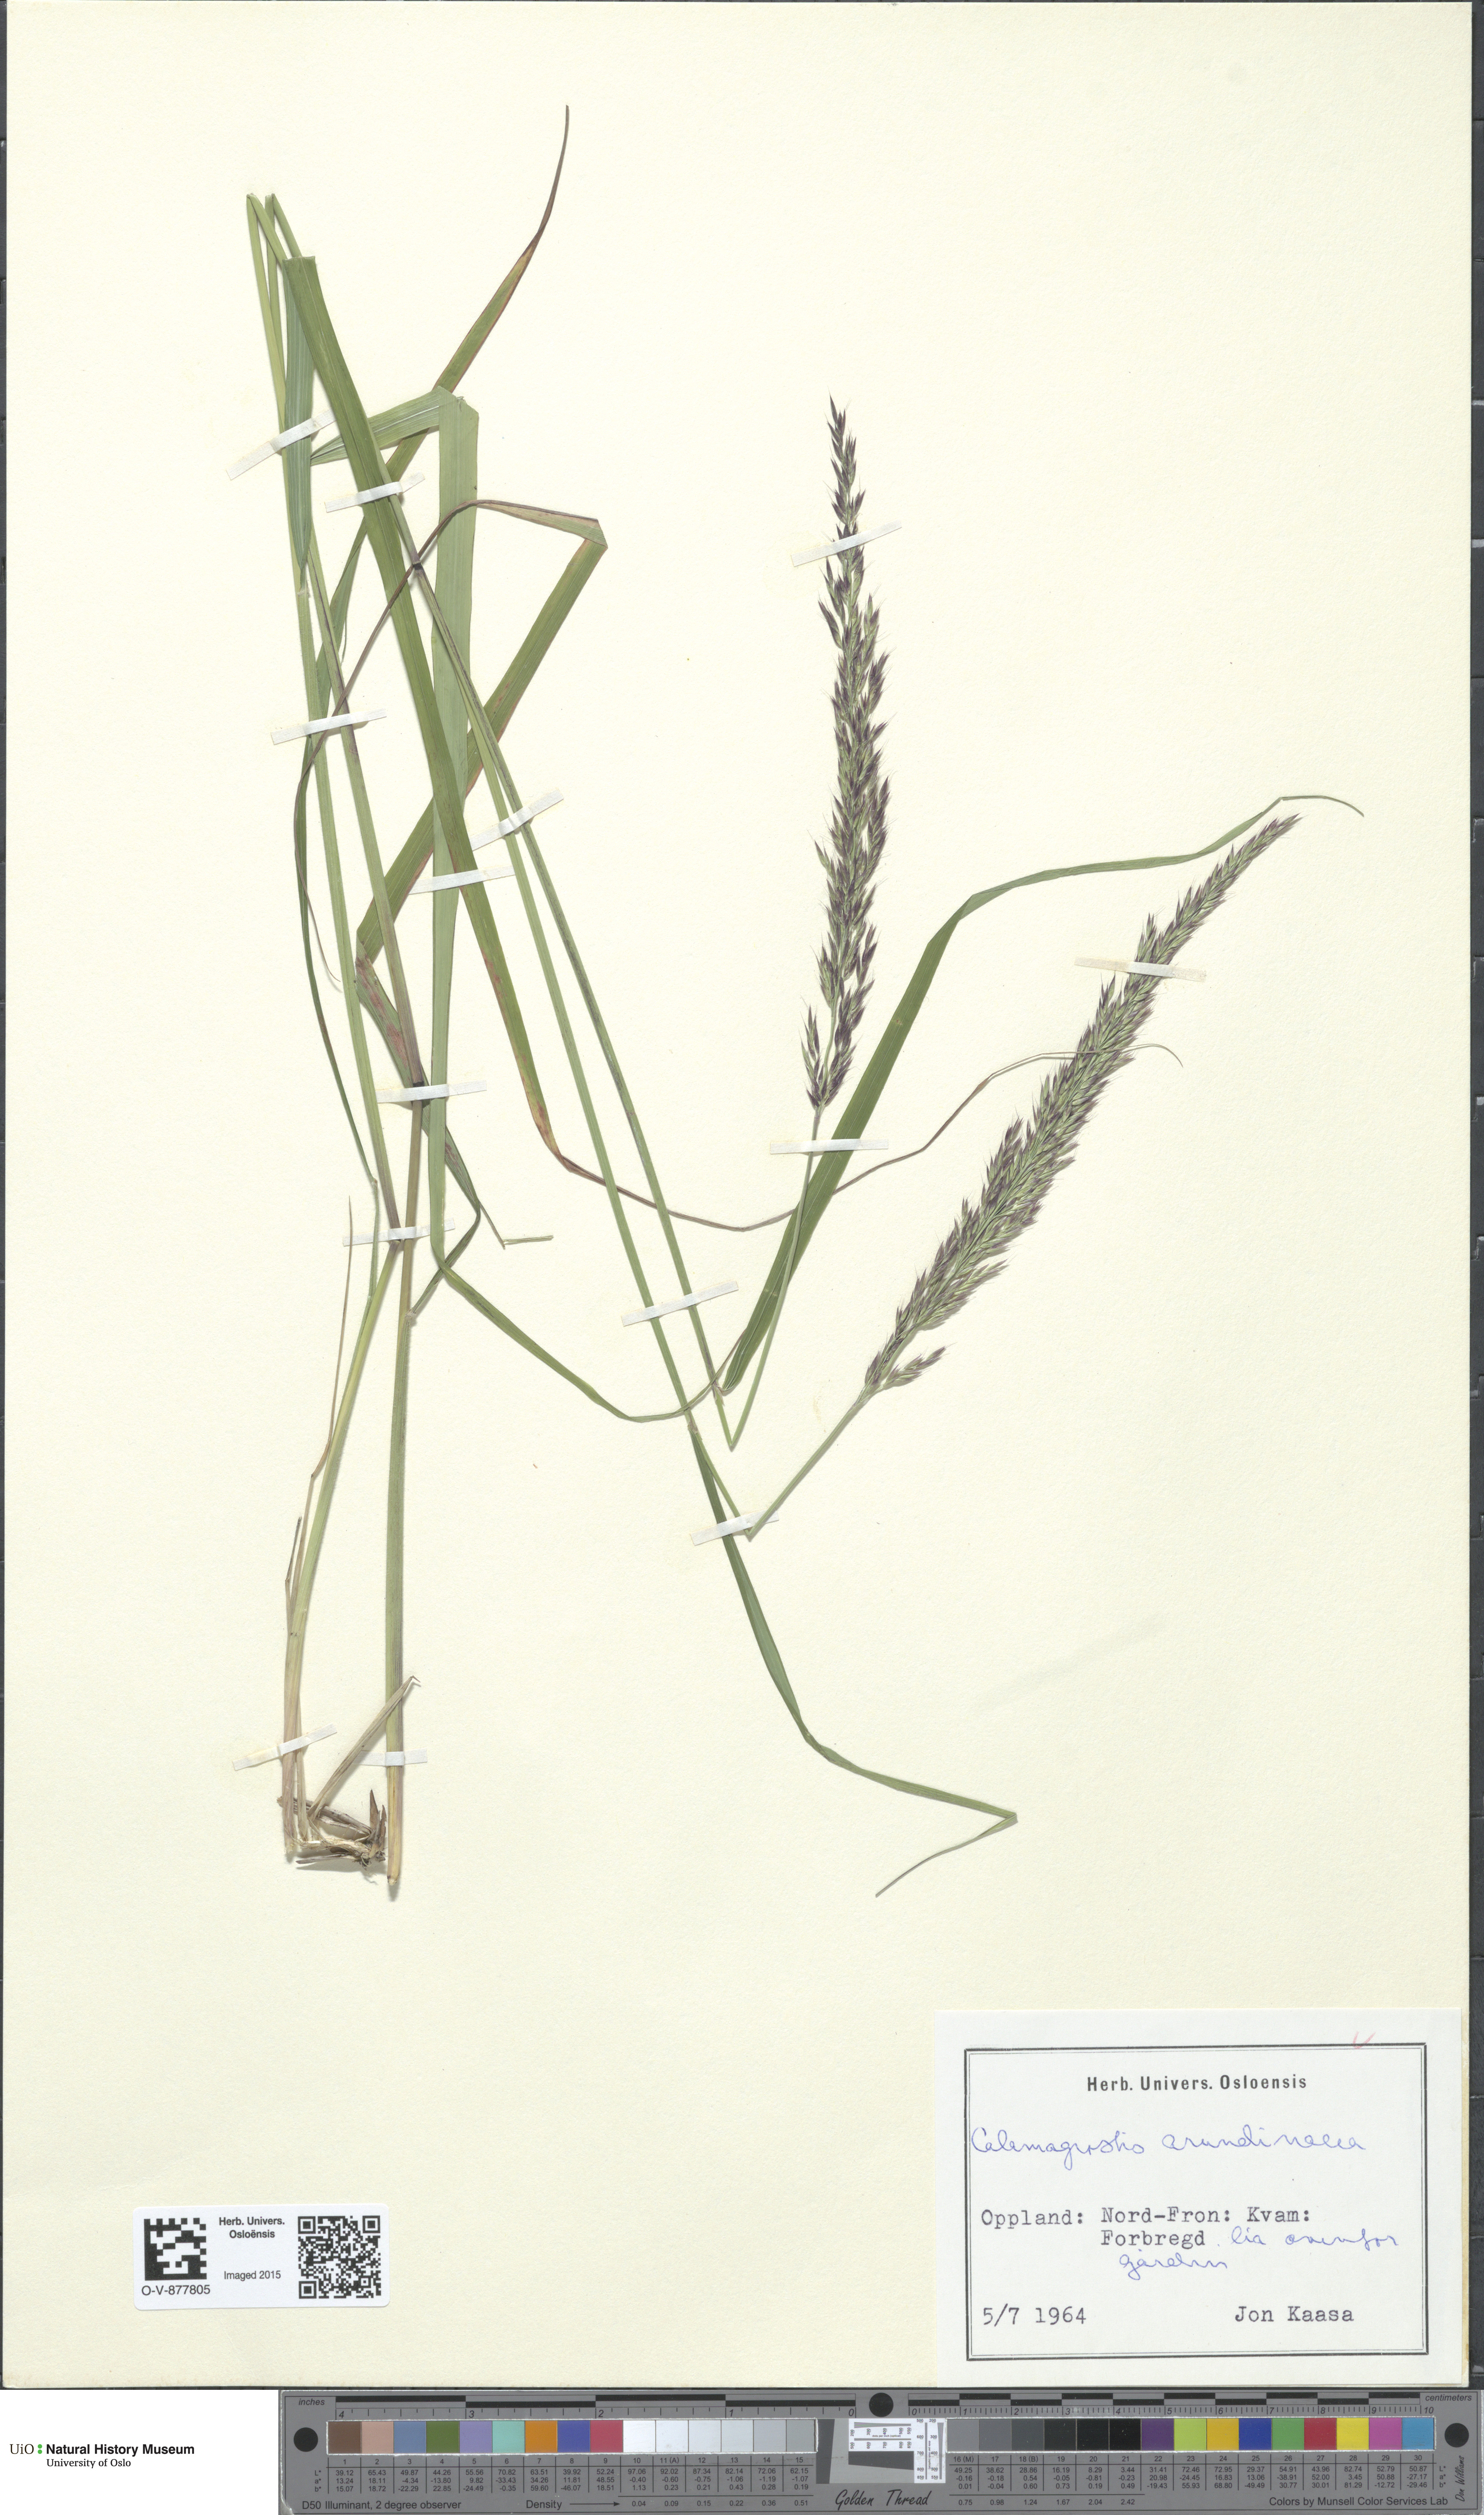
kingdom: Plantae
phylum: Tracheophyta
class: Liliopsida
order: Poales
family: Poaceae
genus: Calamagrostis
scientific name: Calamagrostis arundinacea
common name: Metskastik
